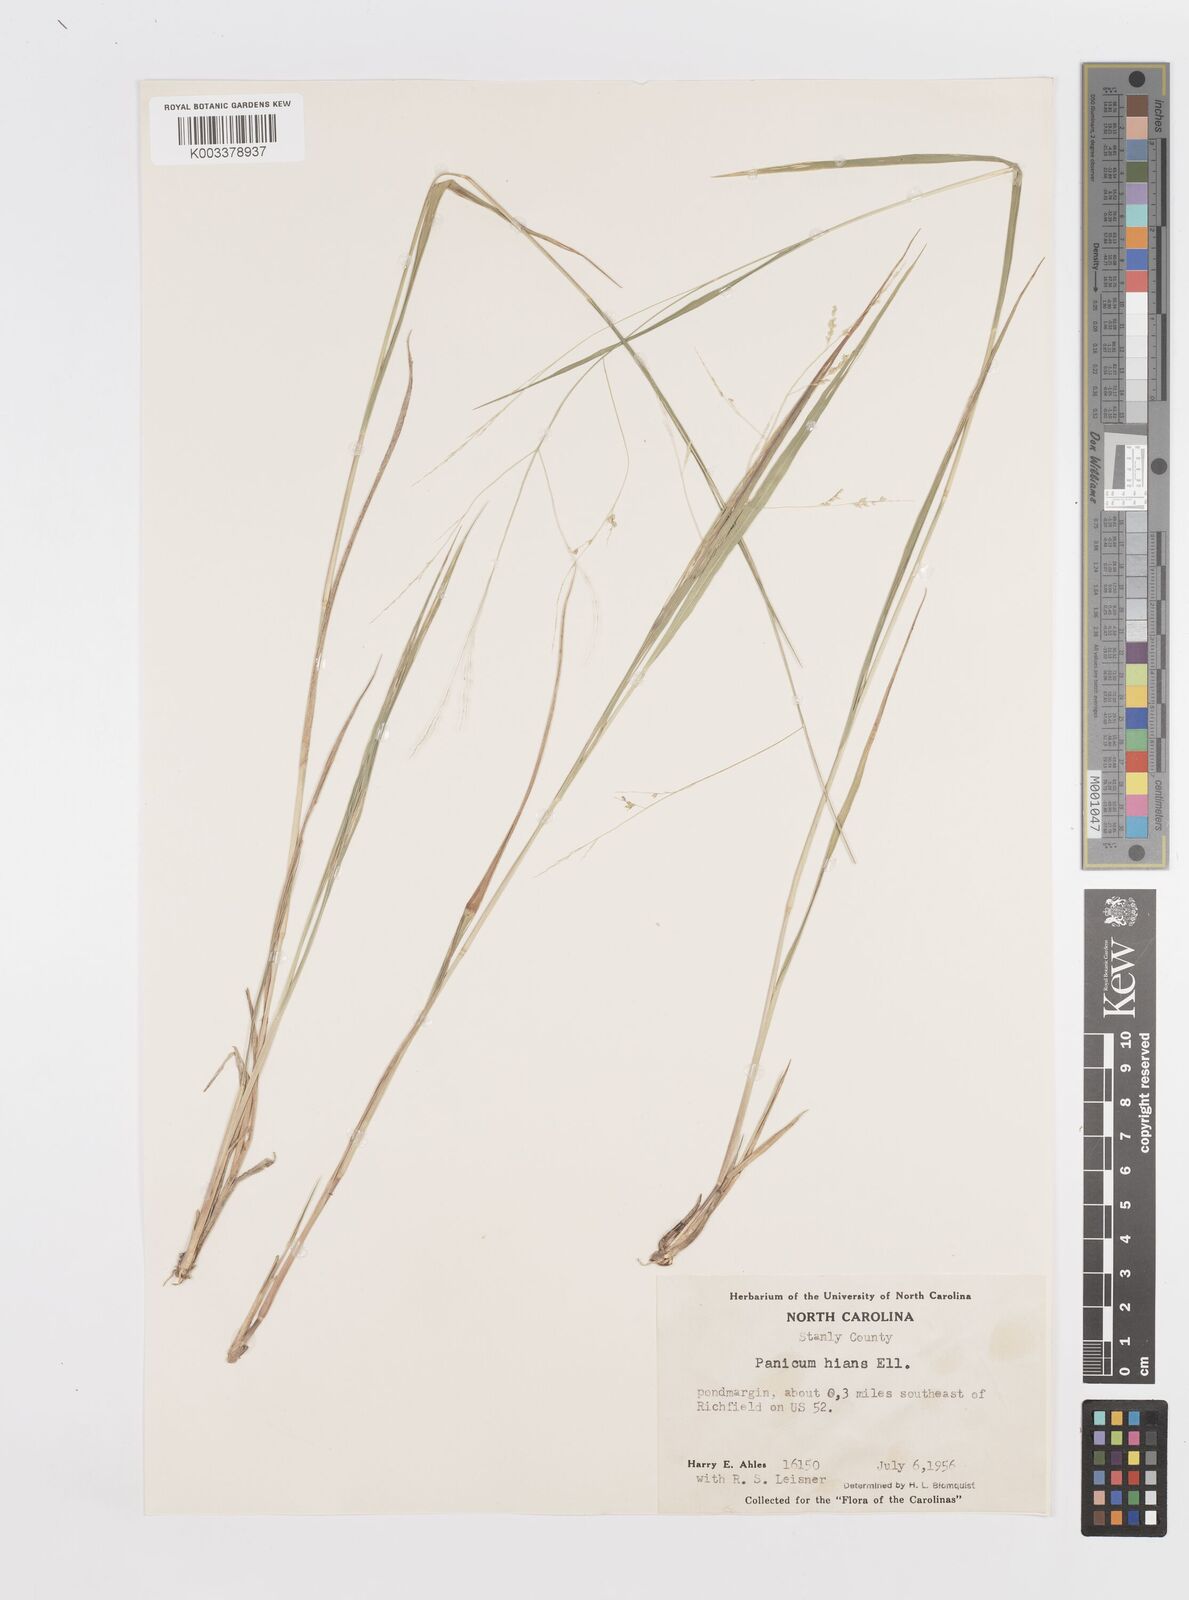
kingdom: Plantae
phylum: Tracheophyta
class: Liliopsida
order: Poales
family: Poaceae
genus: Steinchisma
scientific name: Steinchisma hians
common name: Gaping panic grass
